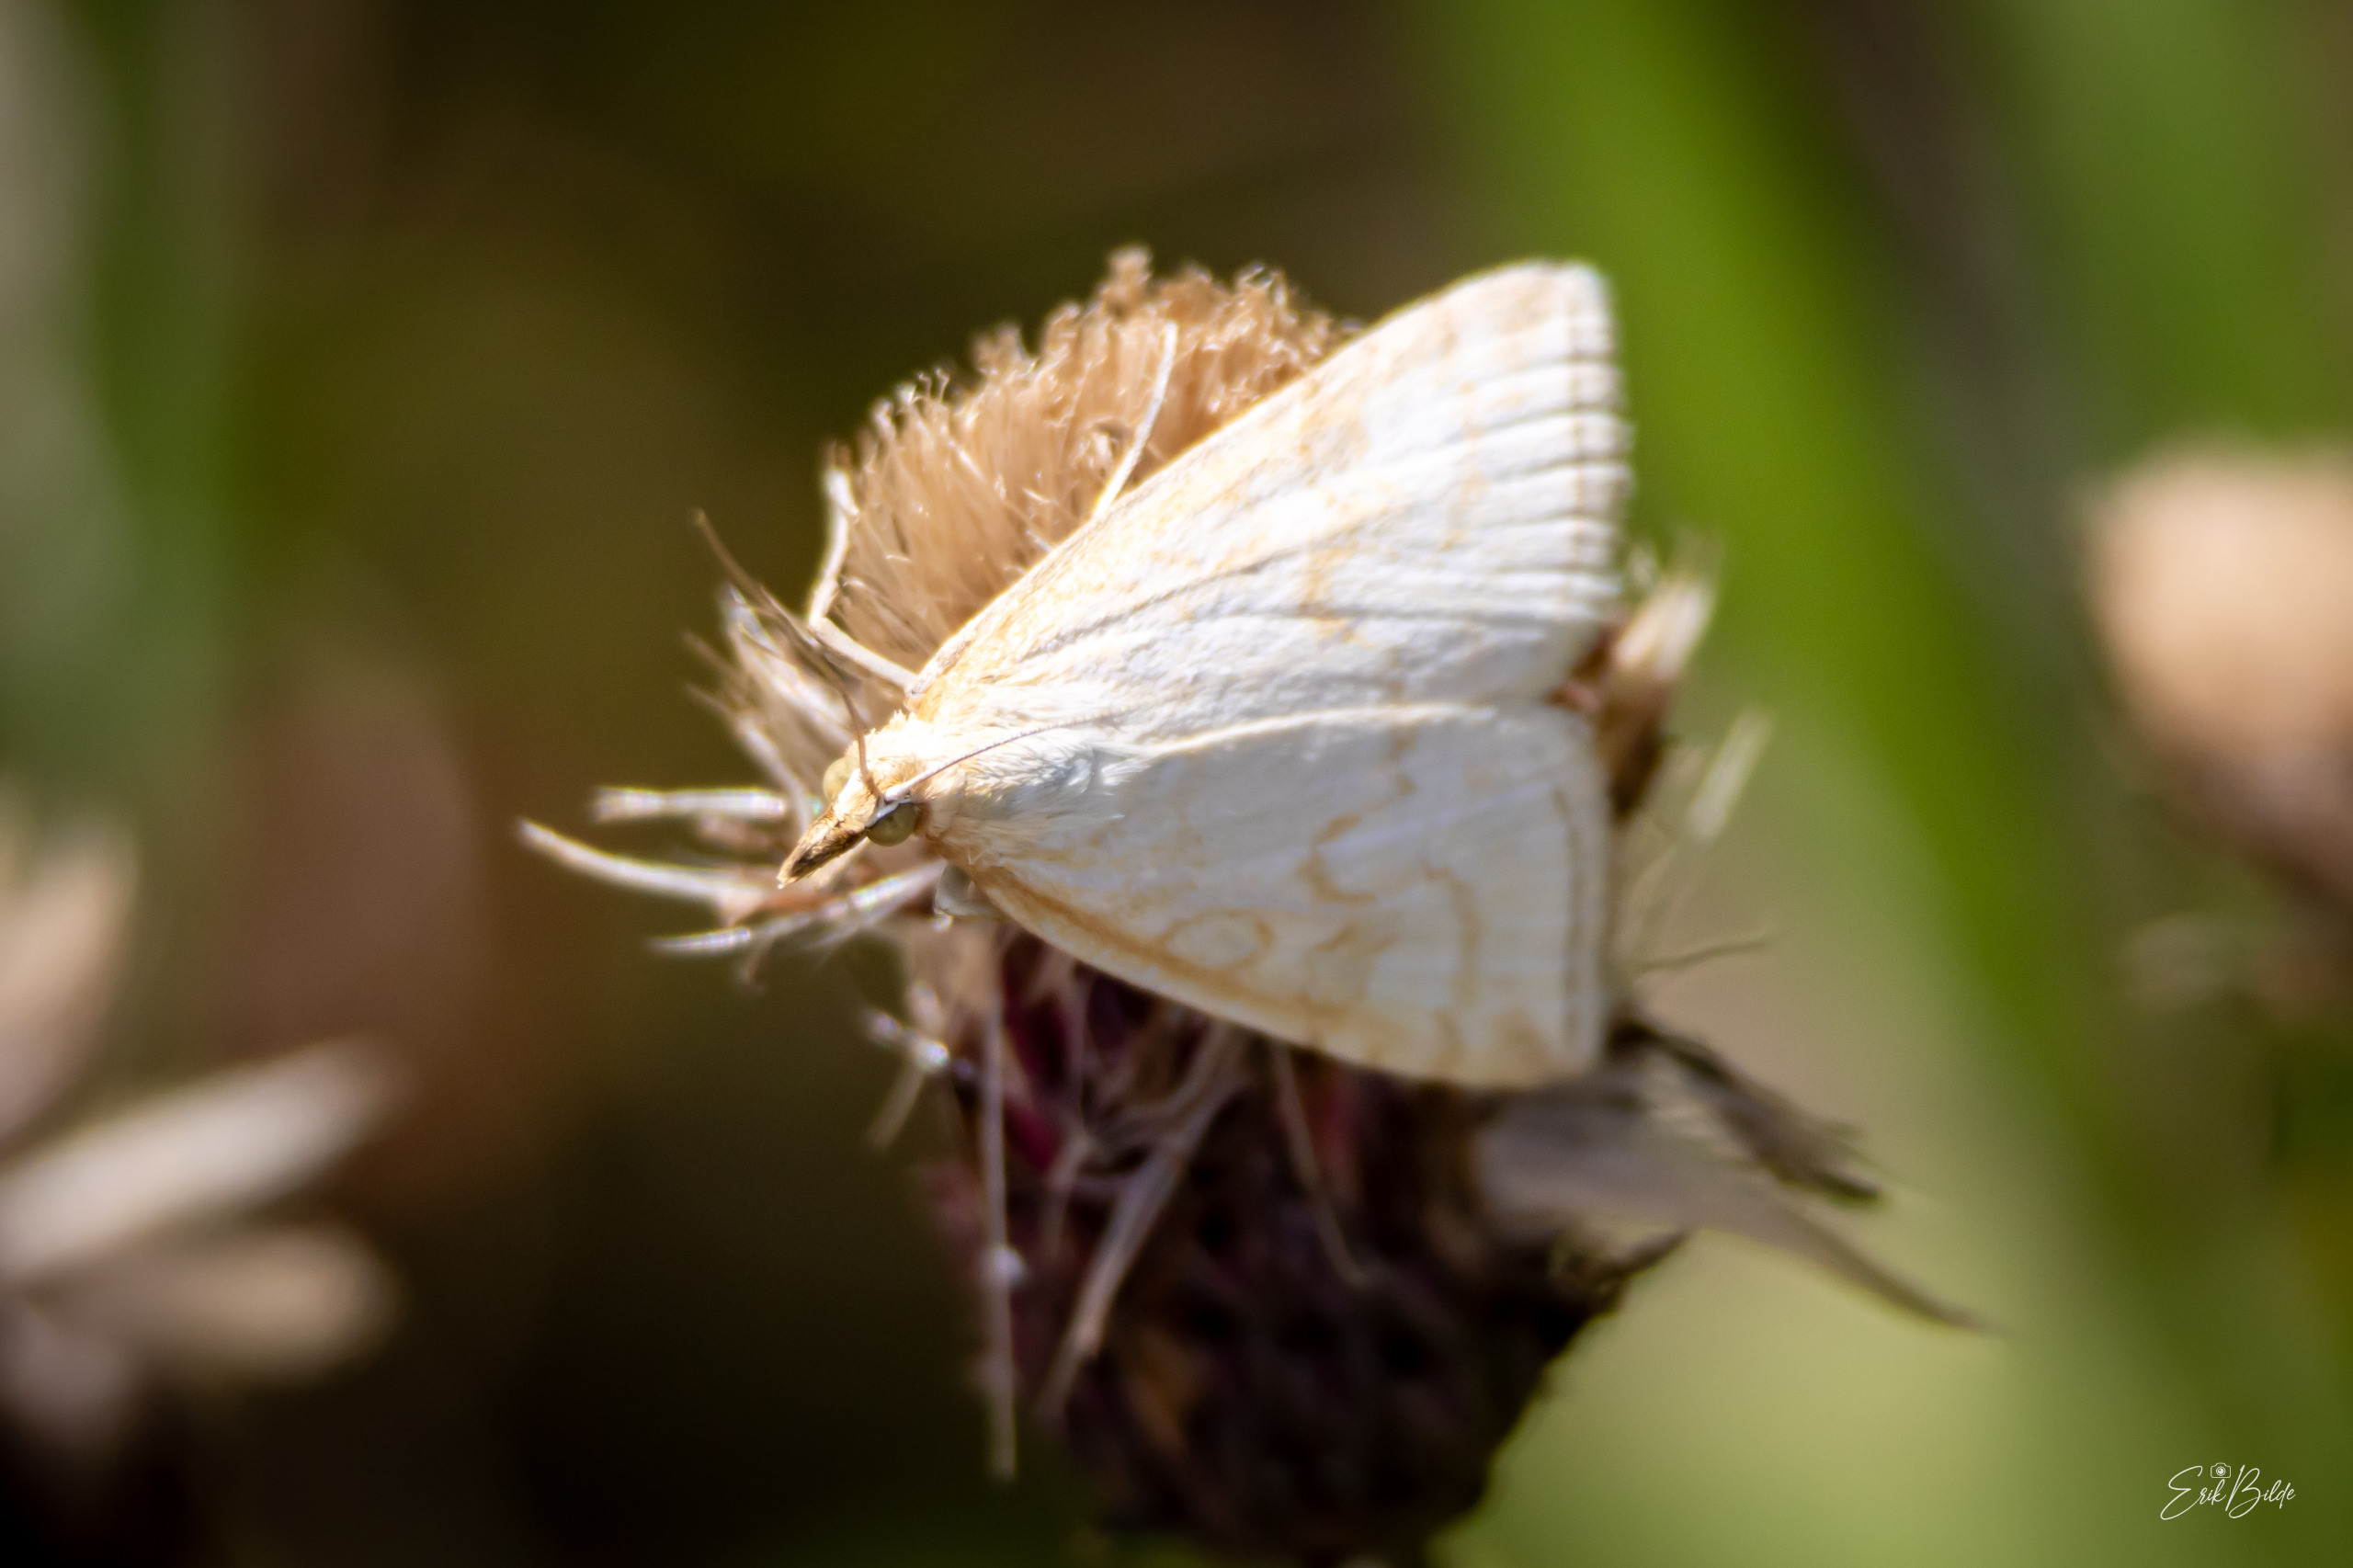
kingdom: Animalia
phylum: Arthropoda
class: Insecta
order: Lepidoptera
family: Crambidae
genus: Udea
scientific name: Udea lutealis
